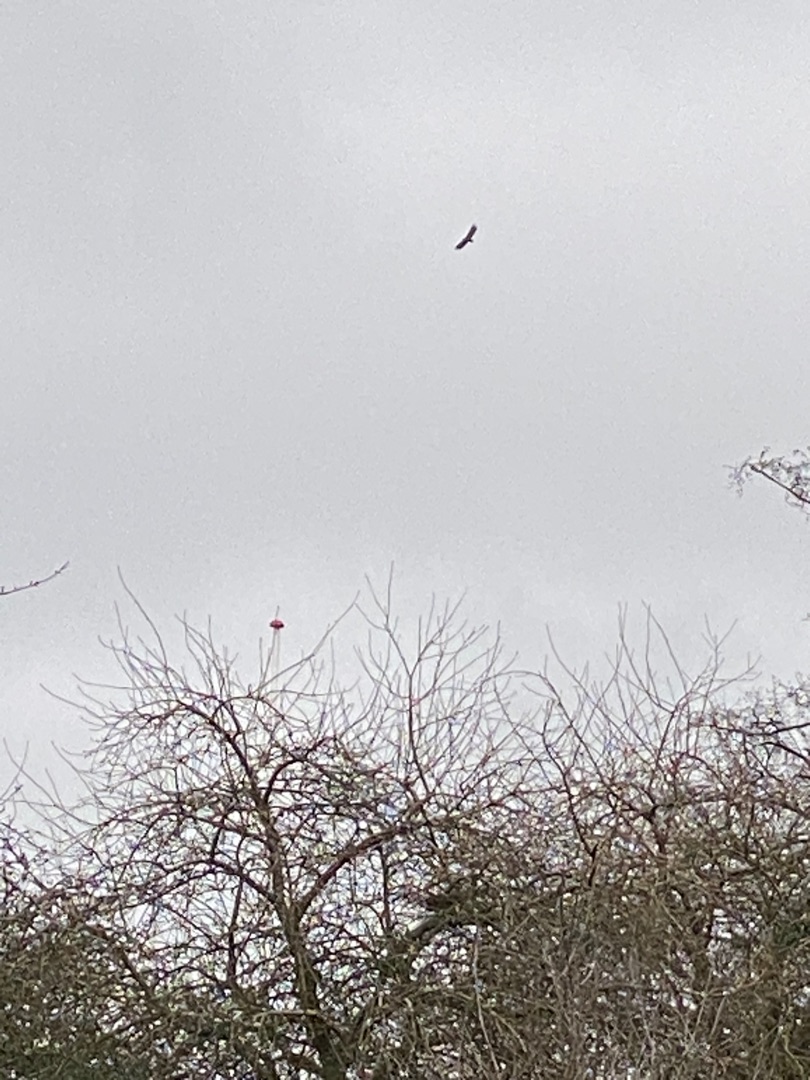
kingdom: Animalia
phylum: Chordata
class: Aves
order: Accipitriformes
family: Accipitridae
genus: Haliaeetus
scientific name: Haliaeetus albicilla
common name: Havørn
